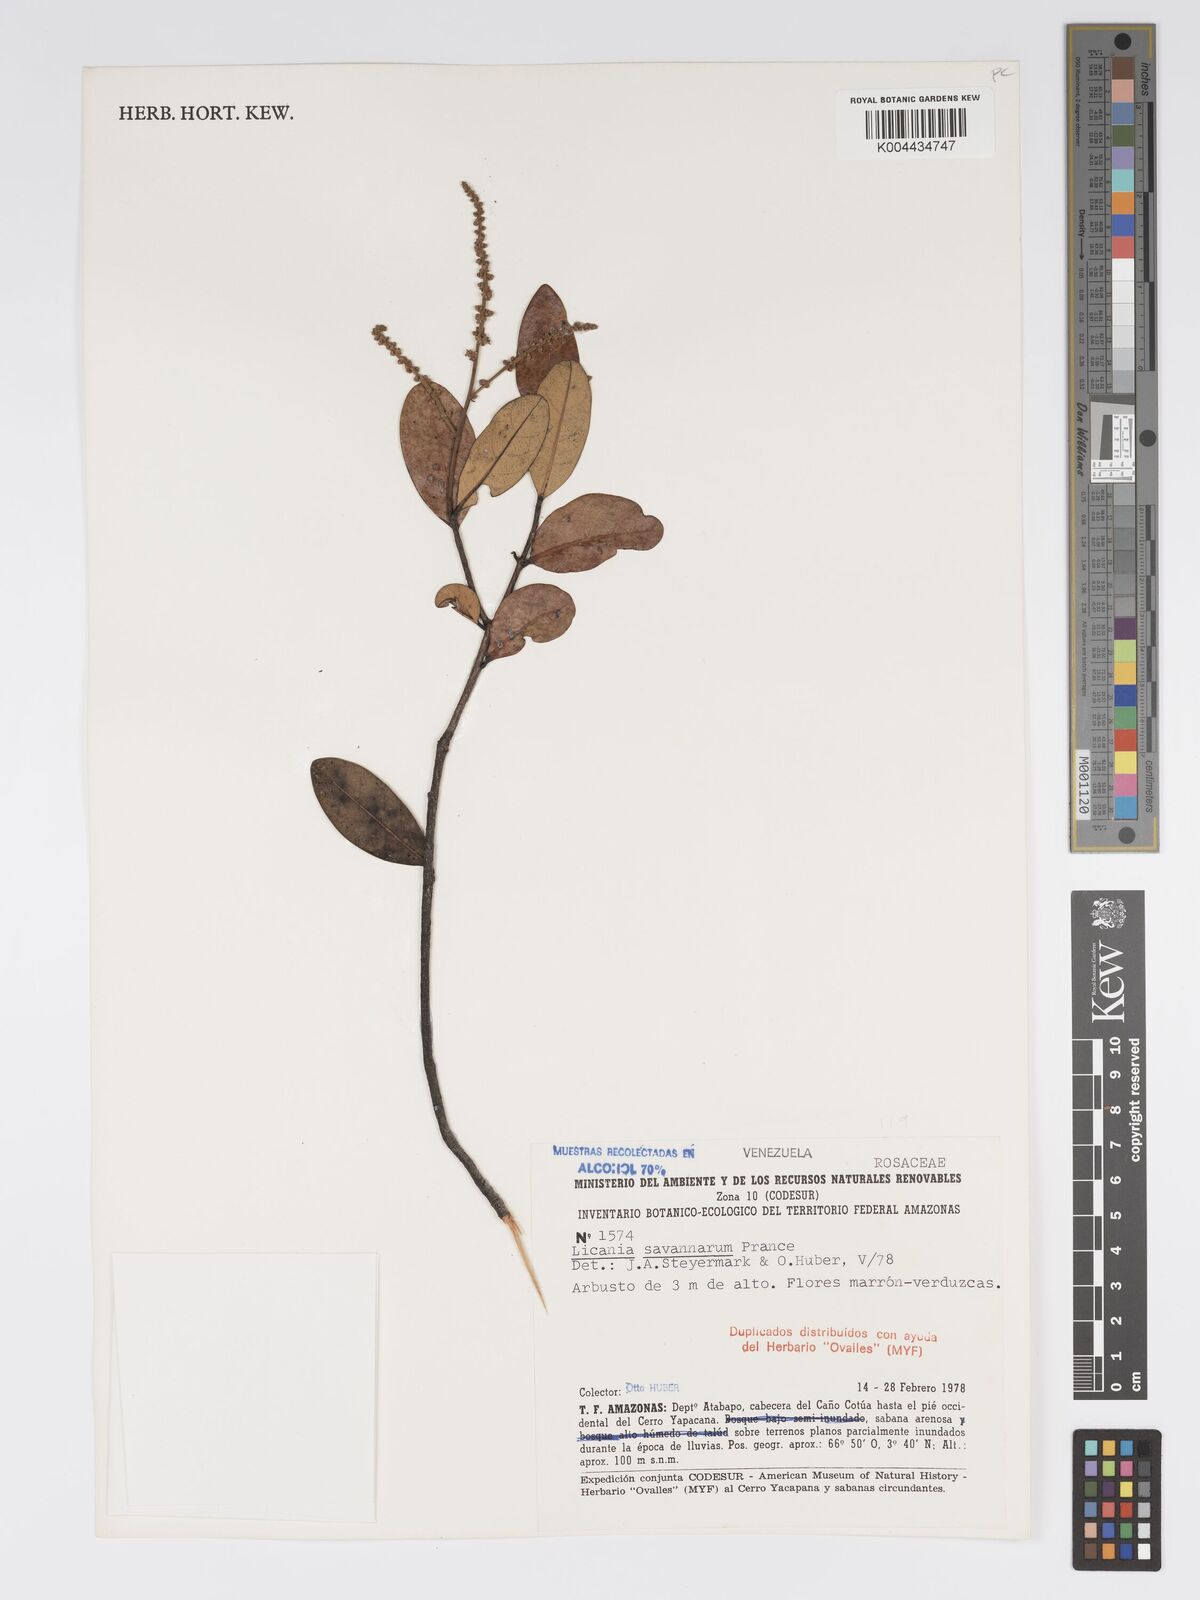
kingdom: Plantae
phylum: Tracheophyta
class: Magnoliopsida
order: Malpighiales
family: Chrysobalanaceae
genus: Licania
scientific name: Licania savannarum
